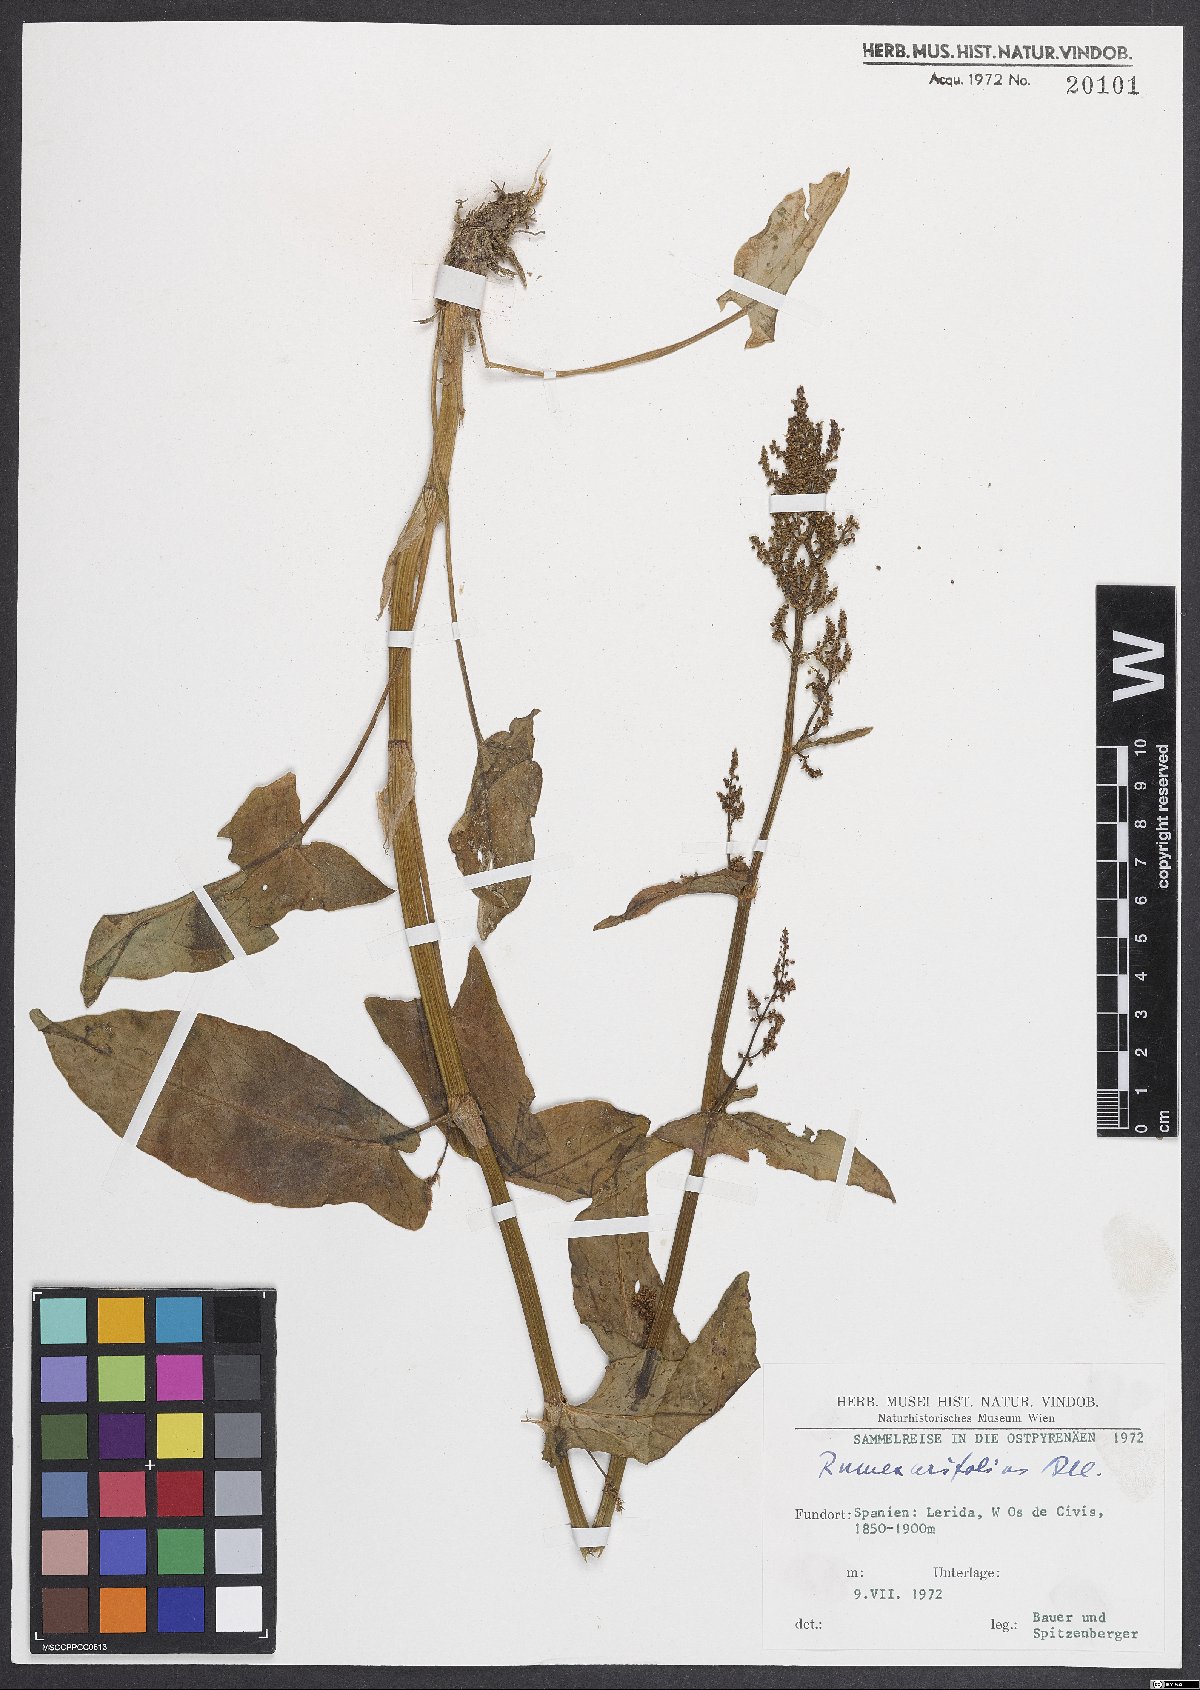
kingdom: Plantae
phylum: Tracheophyta
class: Magnoliopsida
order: Caryophyllales
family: Polygonaceae
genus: Rumex
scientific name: Rumex arifolius
